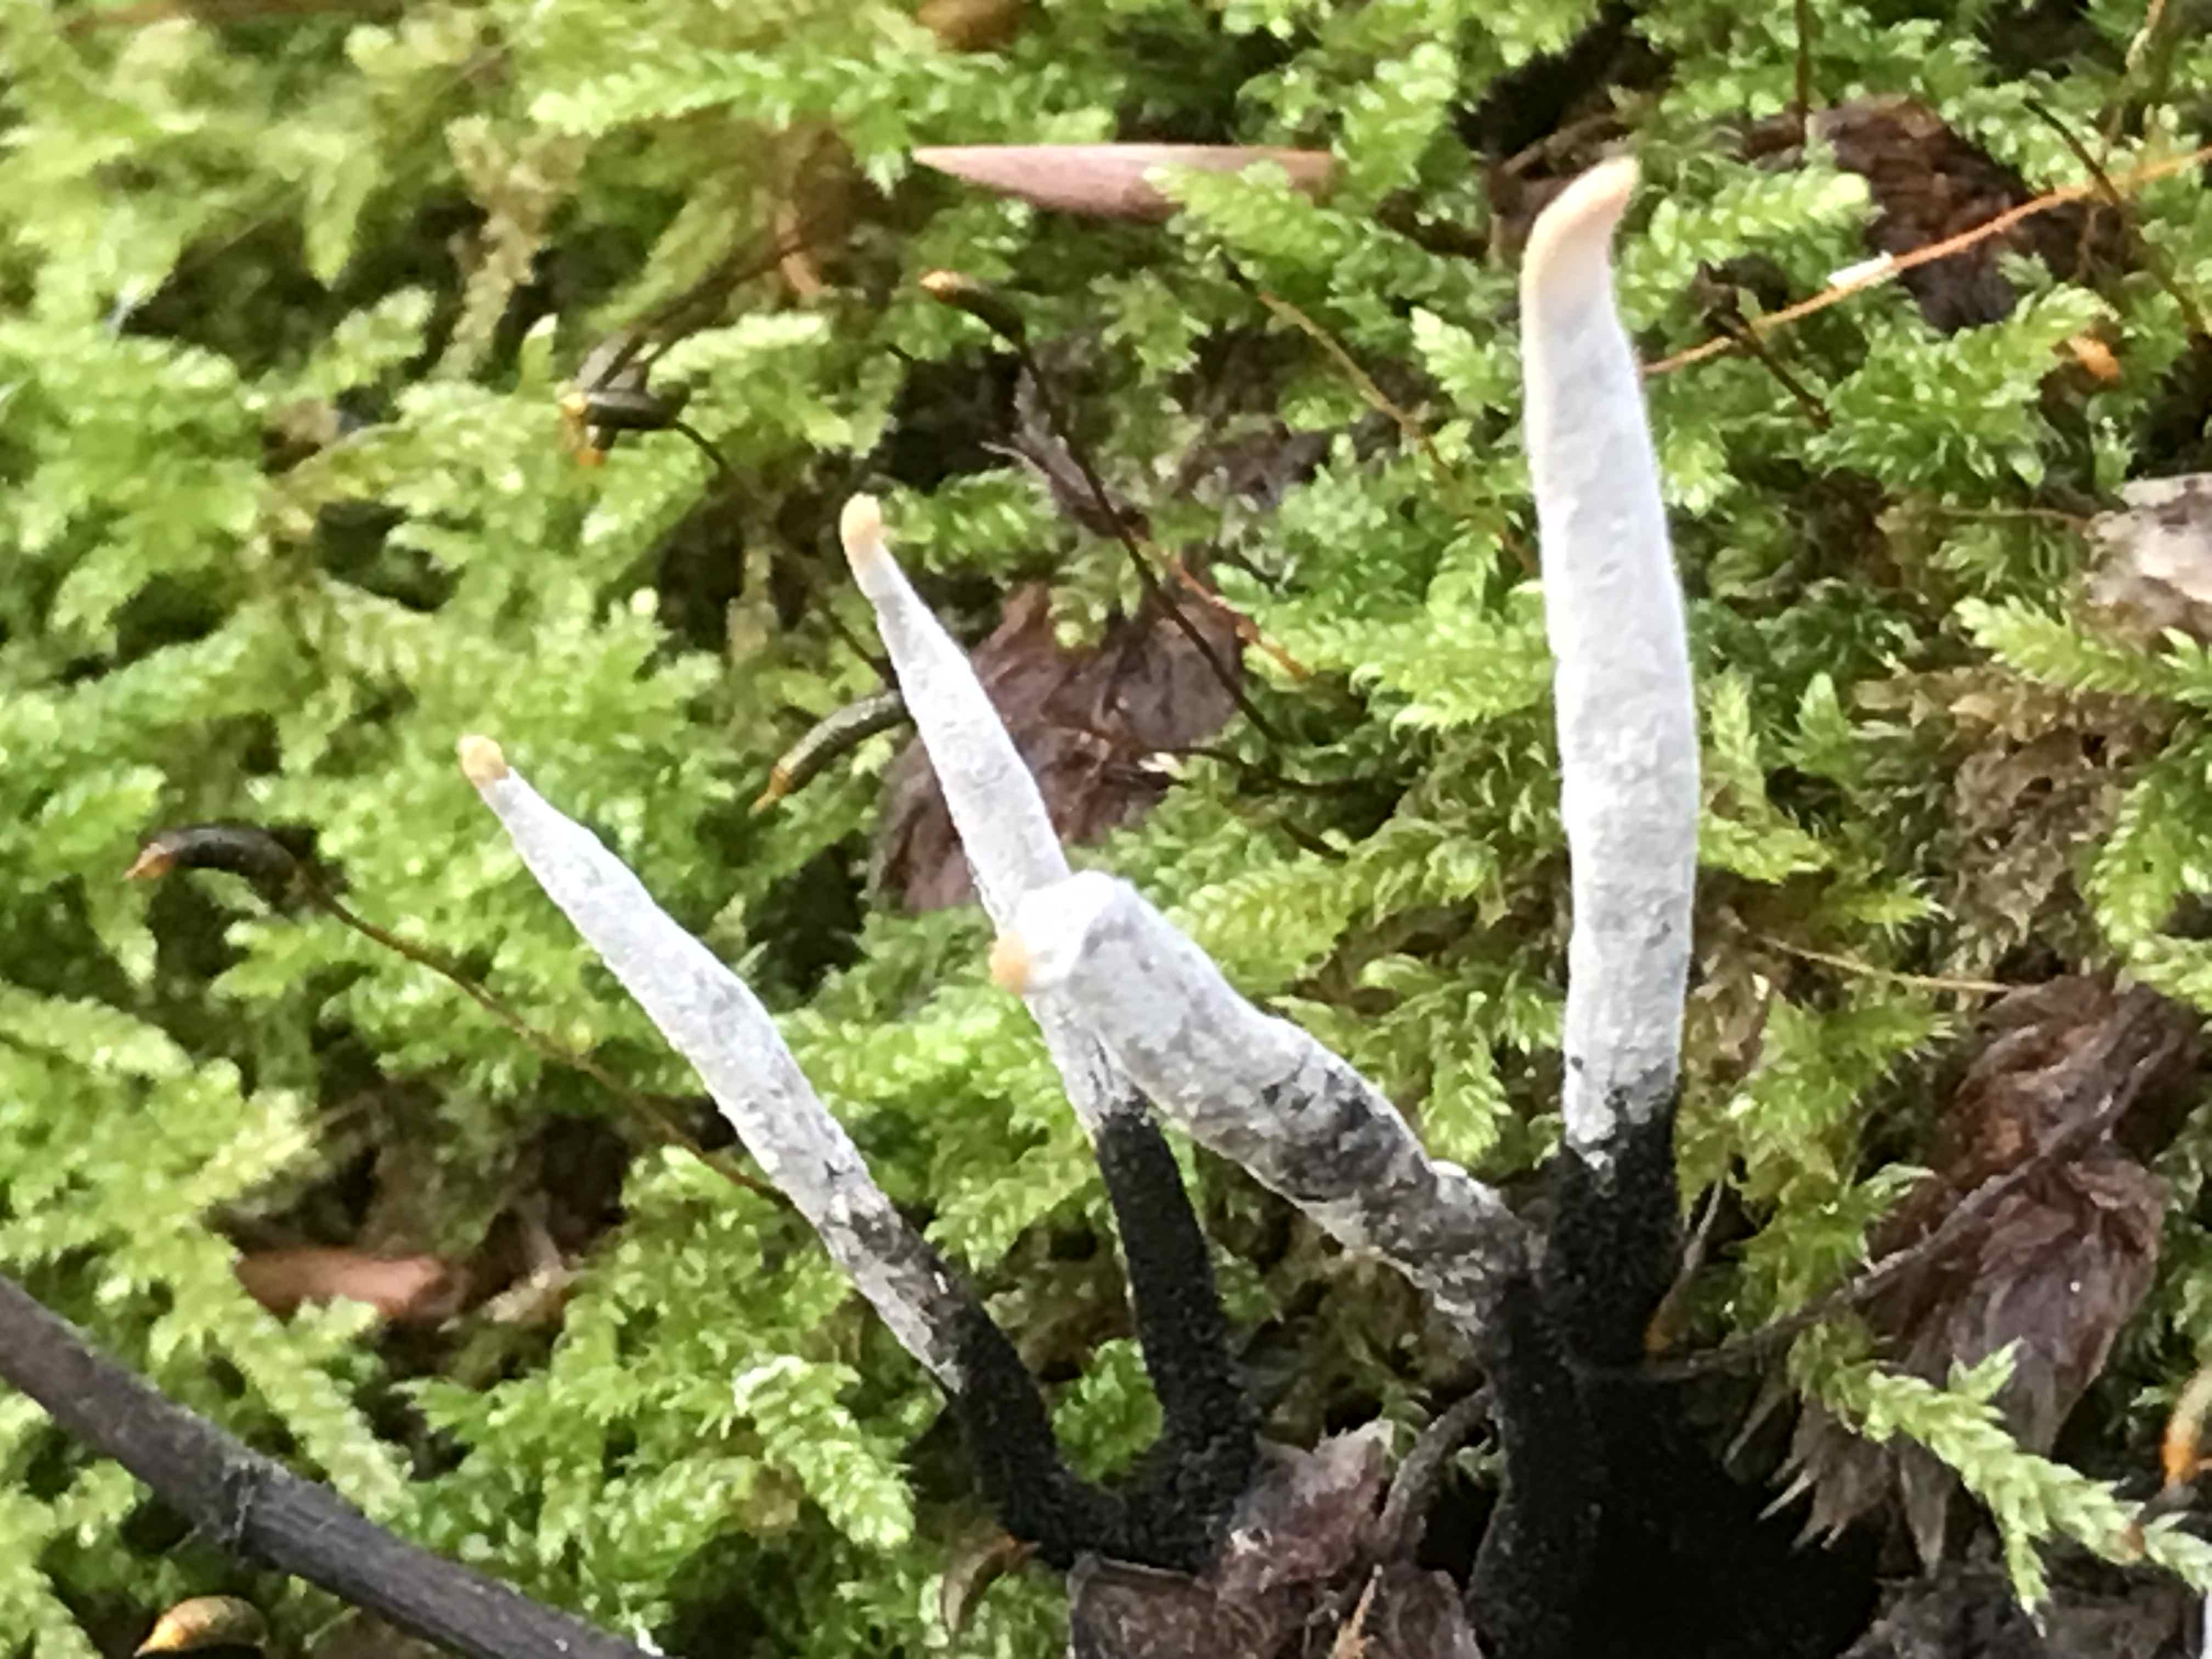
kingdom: Fungi
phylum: Ascomycota
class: Sordariomycetes
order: Xylariales
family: Xylariaceae
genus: Xylaria
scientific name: Xylaria hypoxylon
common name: grenet stødsvamp
